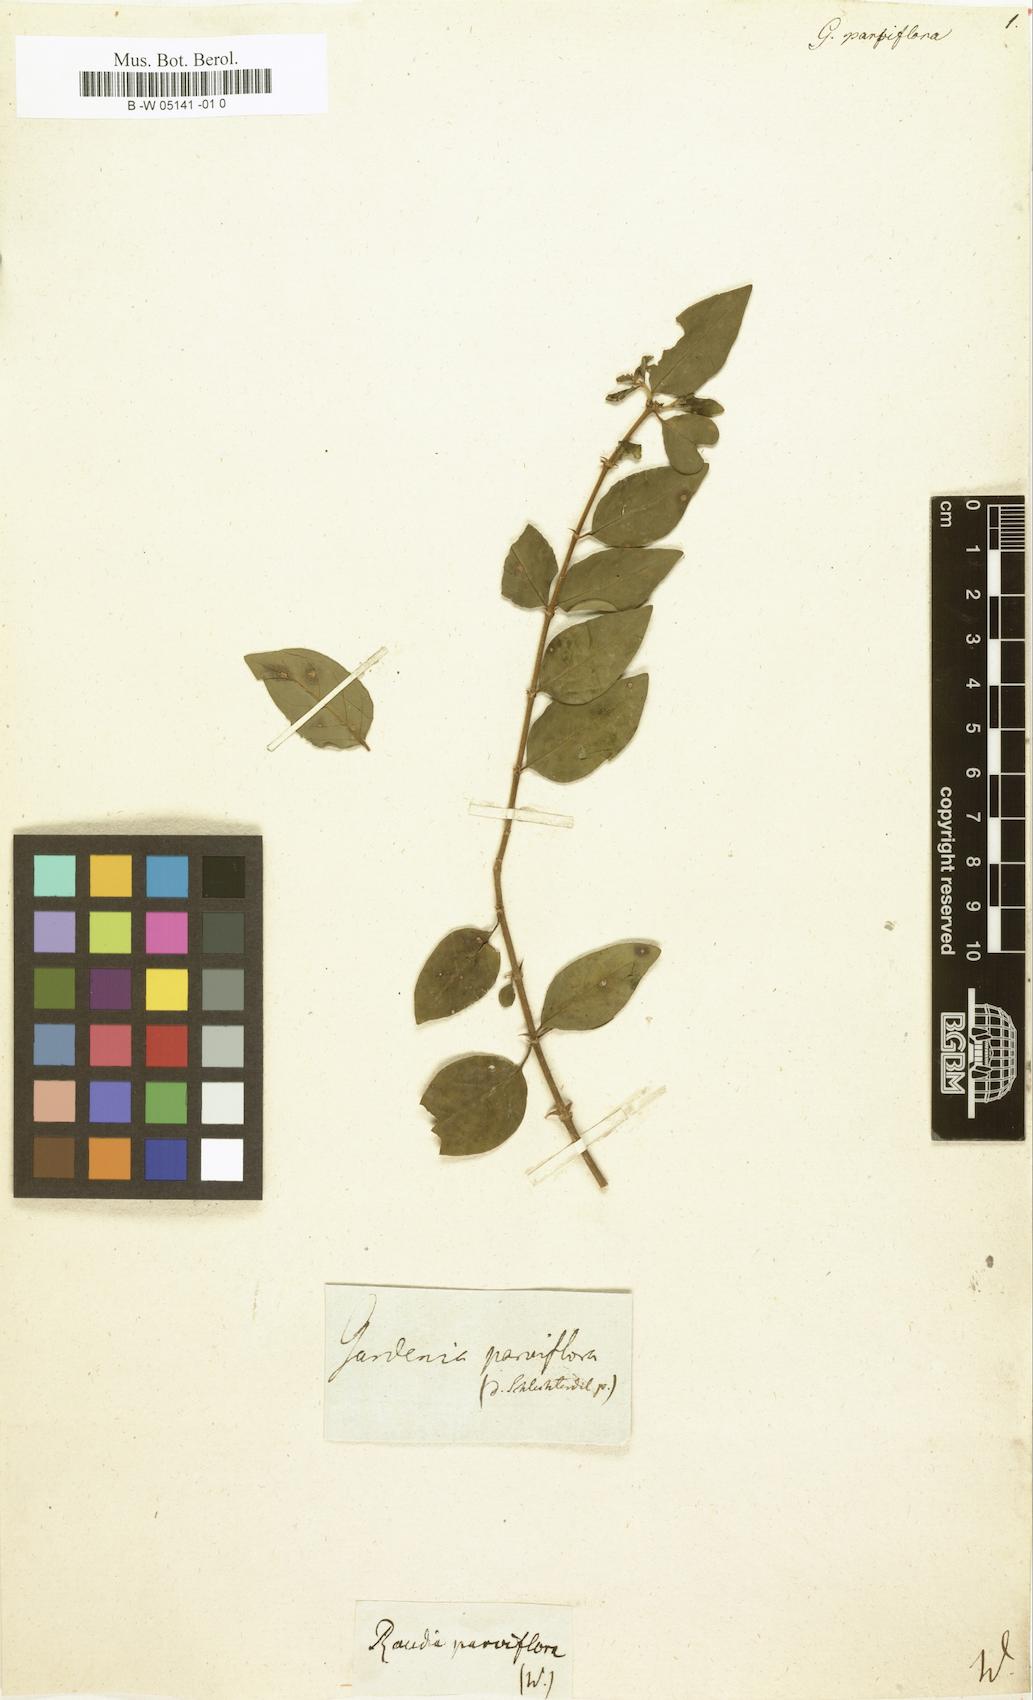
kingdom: Plantae
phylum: Tracheophyta
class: Magnoliopsida
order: Gentianales
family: Rubiaceae
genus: Randia
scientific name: Randia tetrandra
